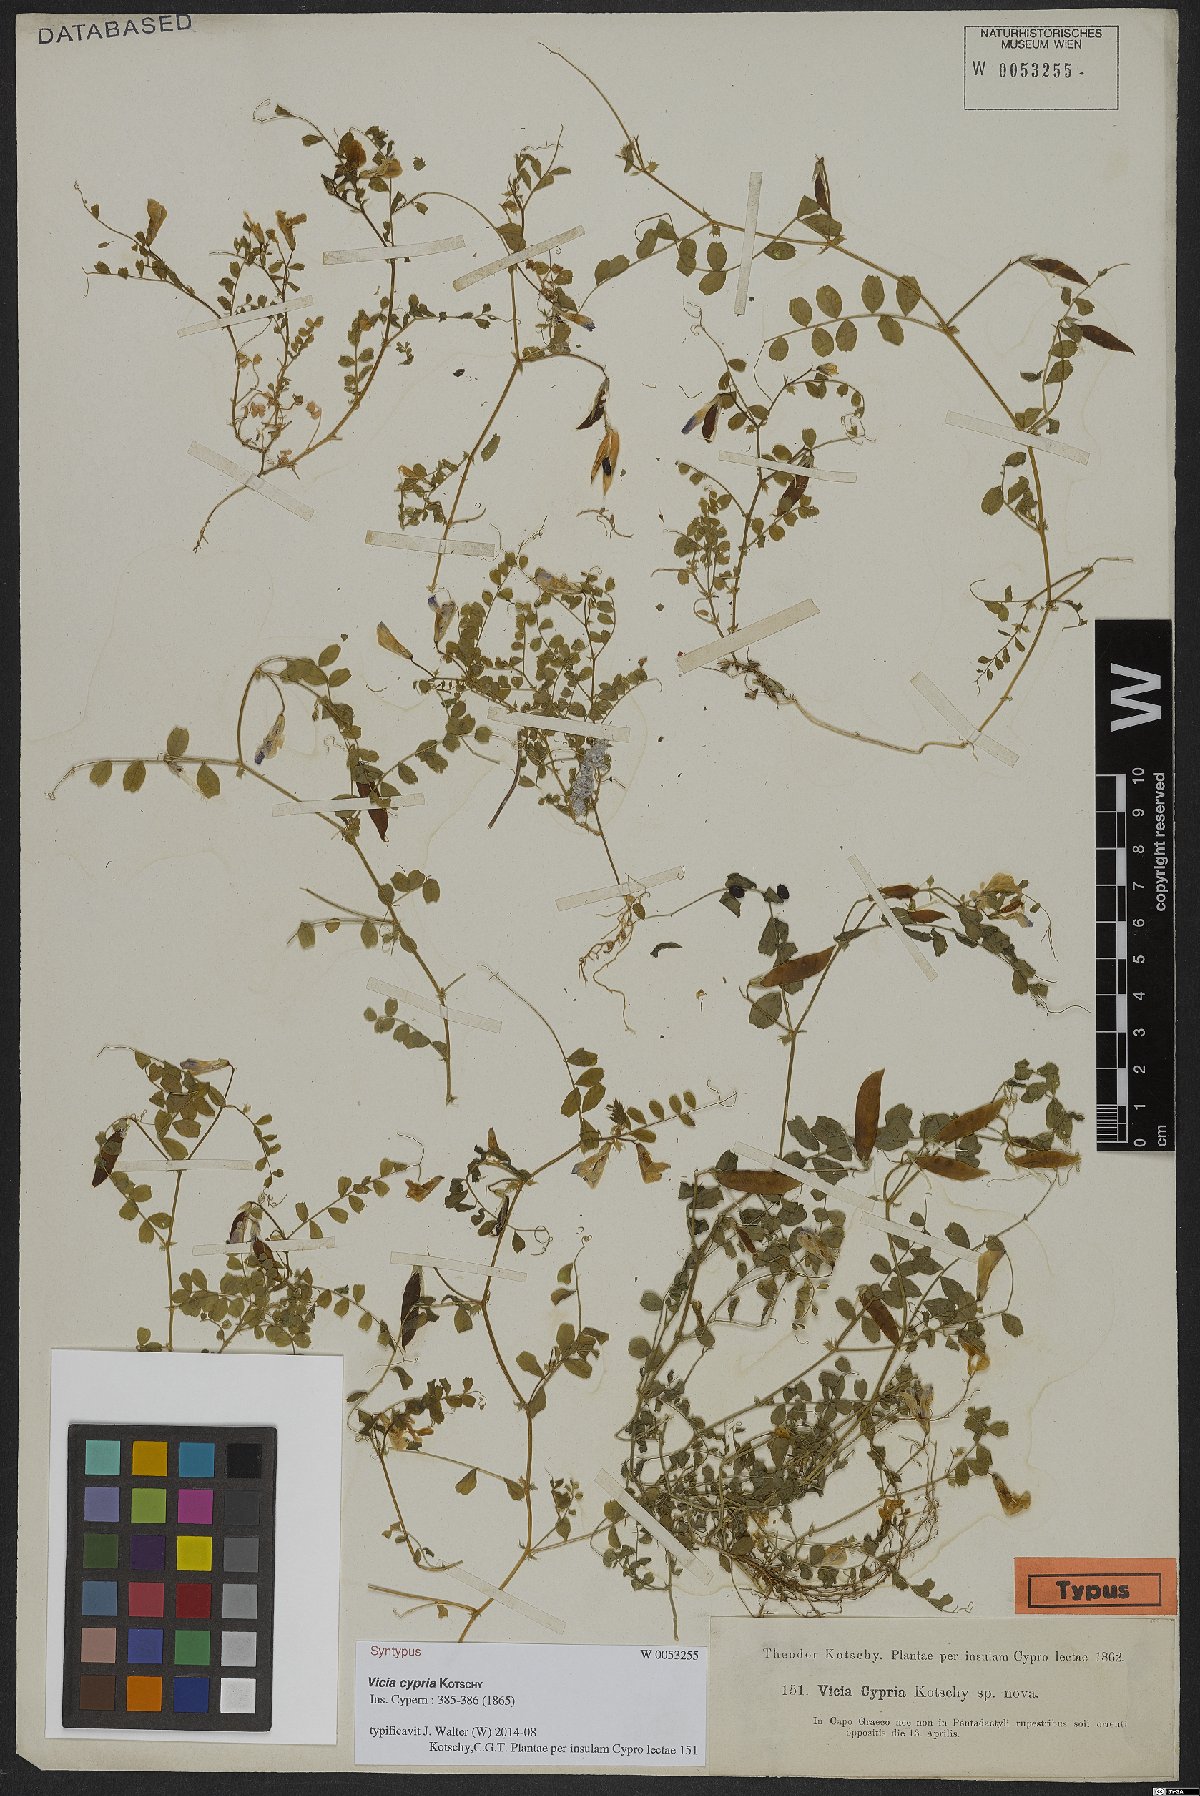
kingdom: Plantae
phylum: Tracheophyta
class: Magnoliopsida
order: Fabales
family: Fabaceae
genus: Vicia
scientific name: Vicia cypria
